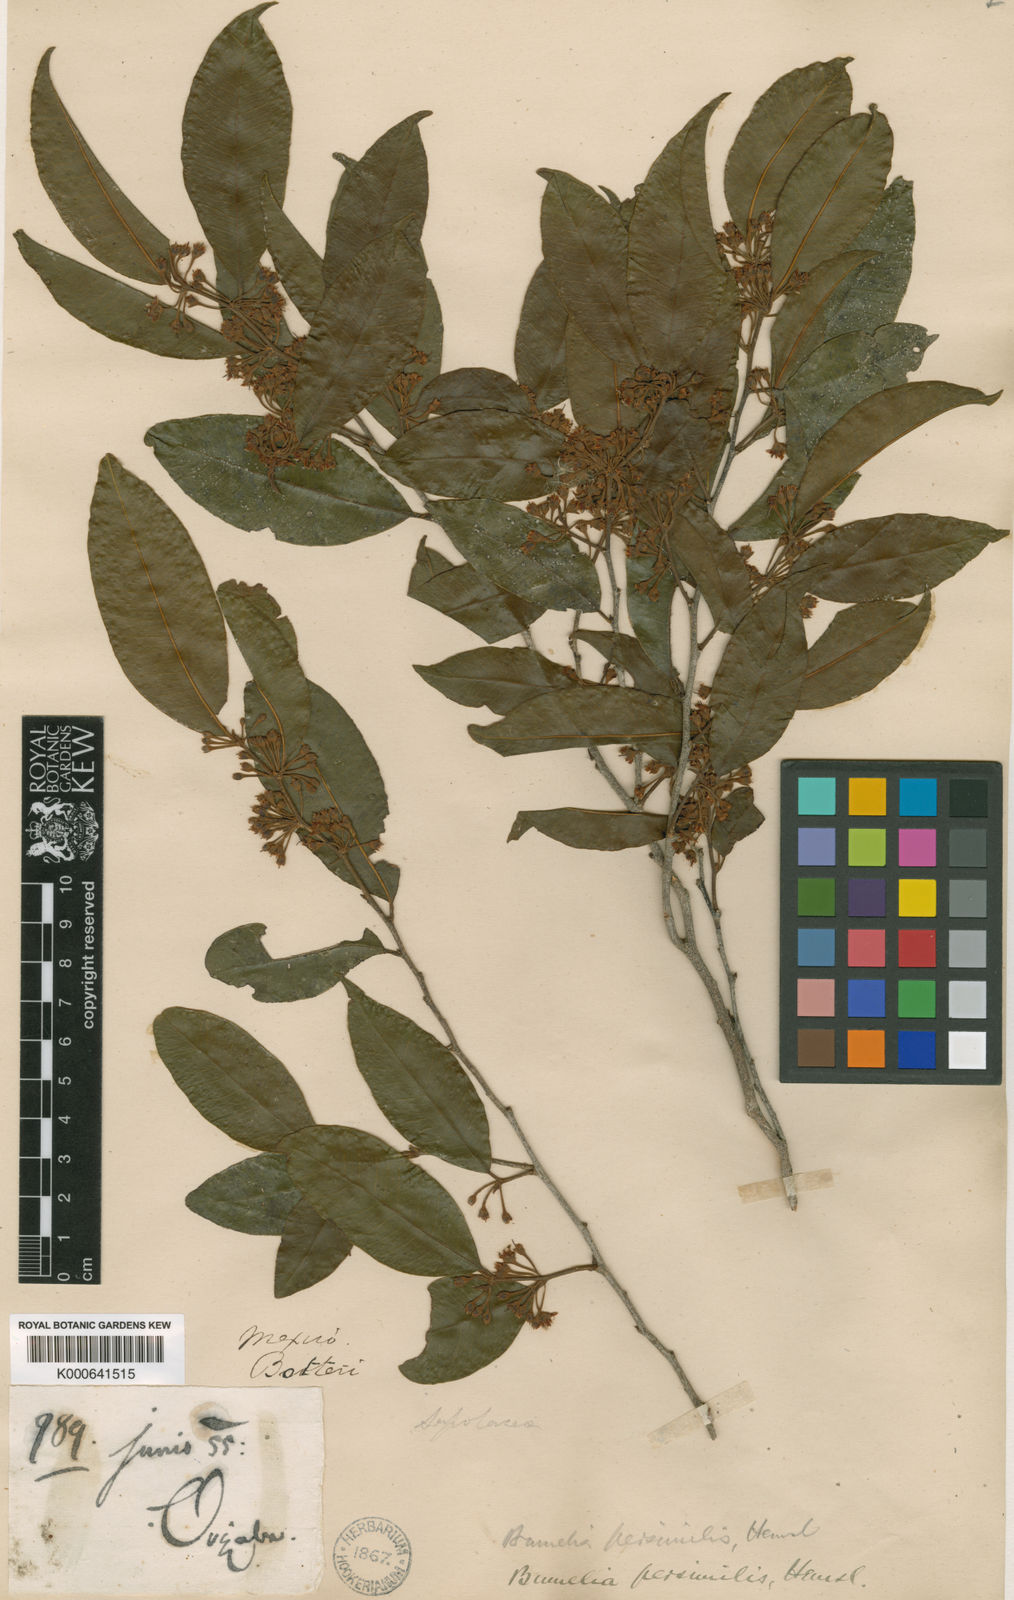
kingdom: Plantae
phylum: Tracheophyta
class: Magnoliopsida
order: Ericales
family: Sapotaceae
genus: Sideroxylon
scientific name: Sideroxylon persimile
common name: Bumelia
